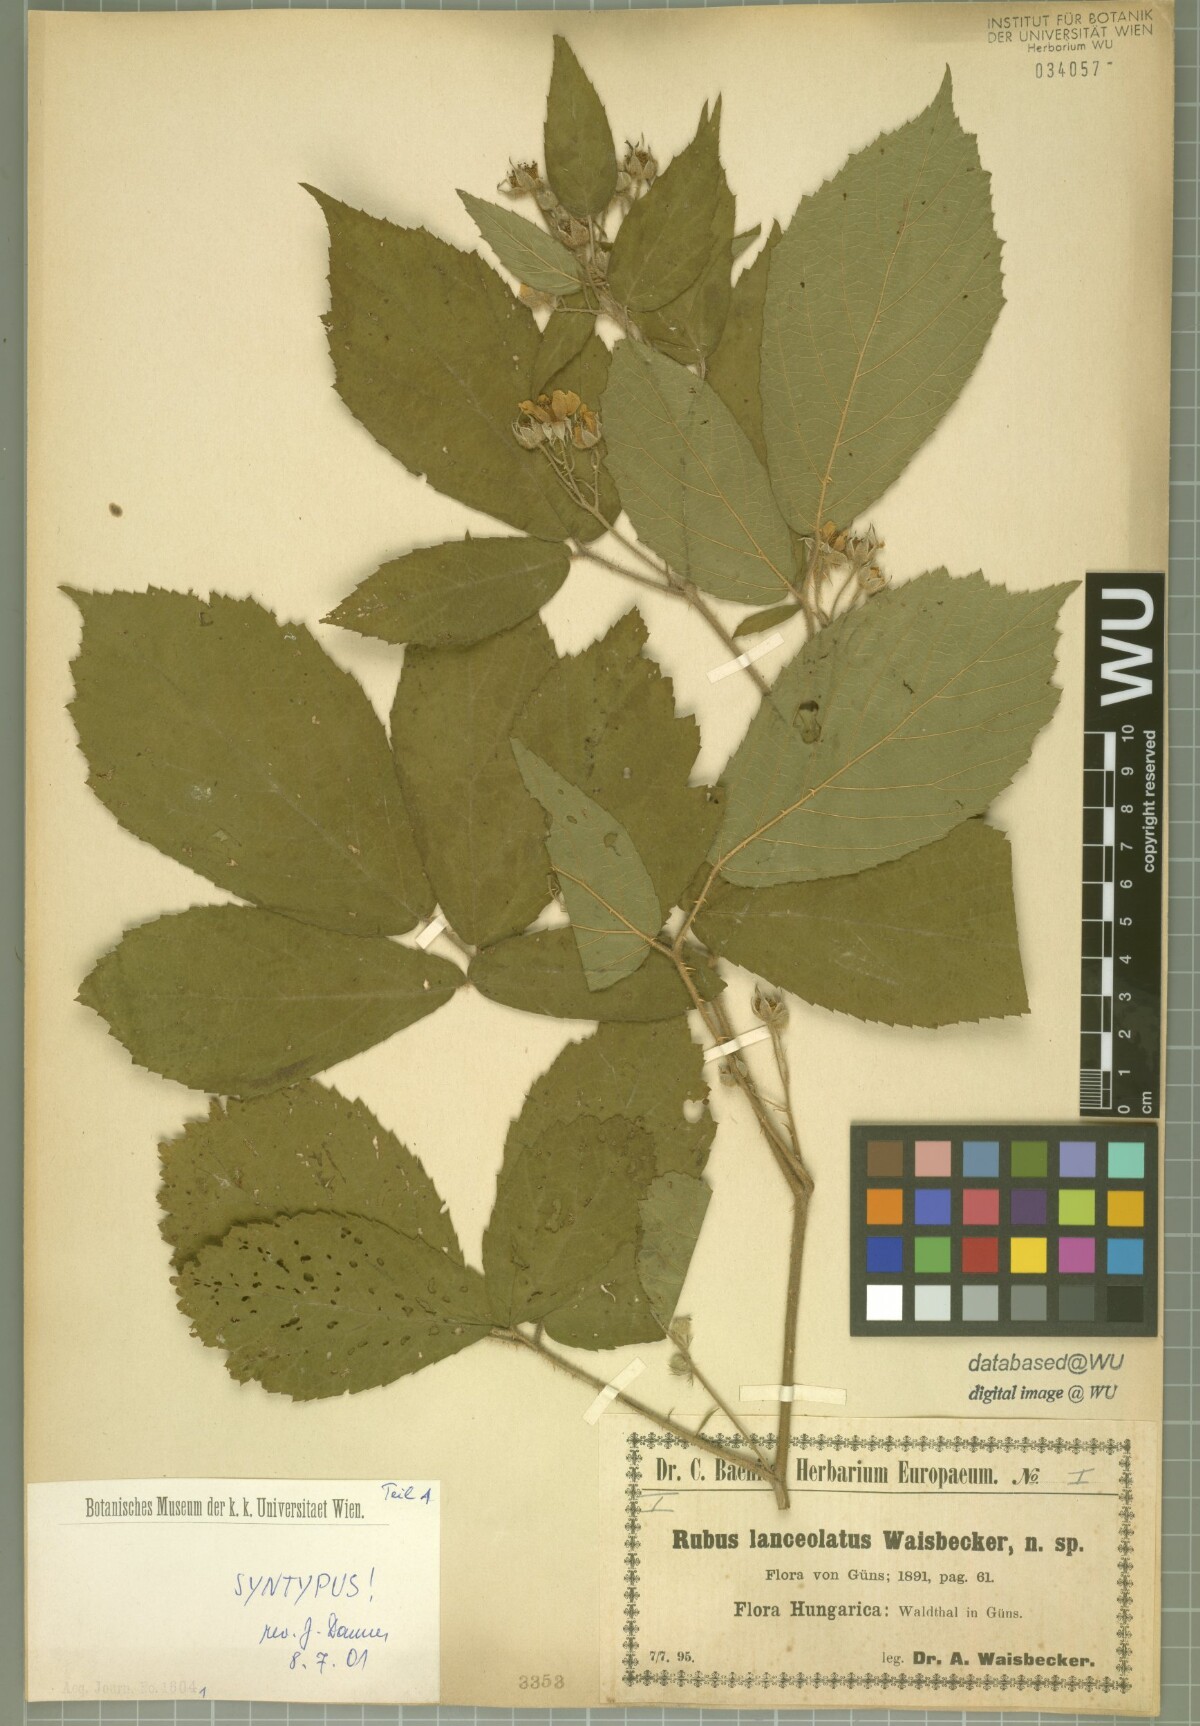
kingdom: Plantae
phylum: Tracheophyta
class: Magnoliopsida
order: Rosales
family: Rosaceae
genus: Rubus
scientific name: Rubus lanceolatus
